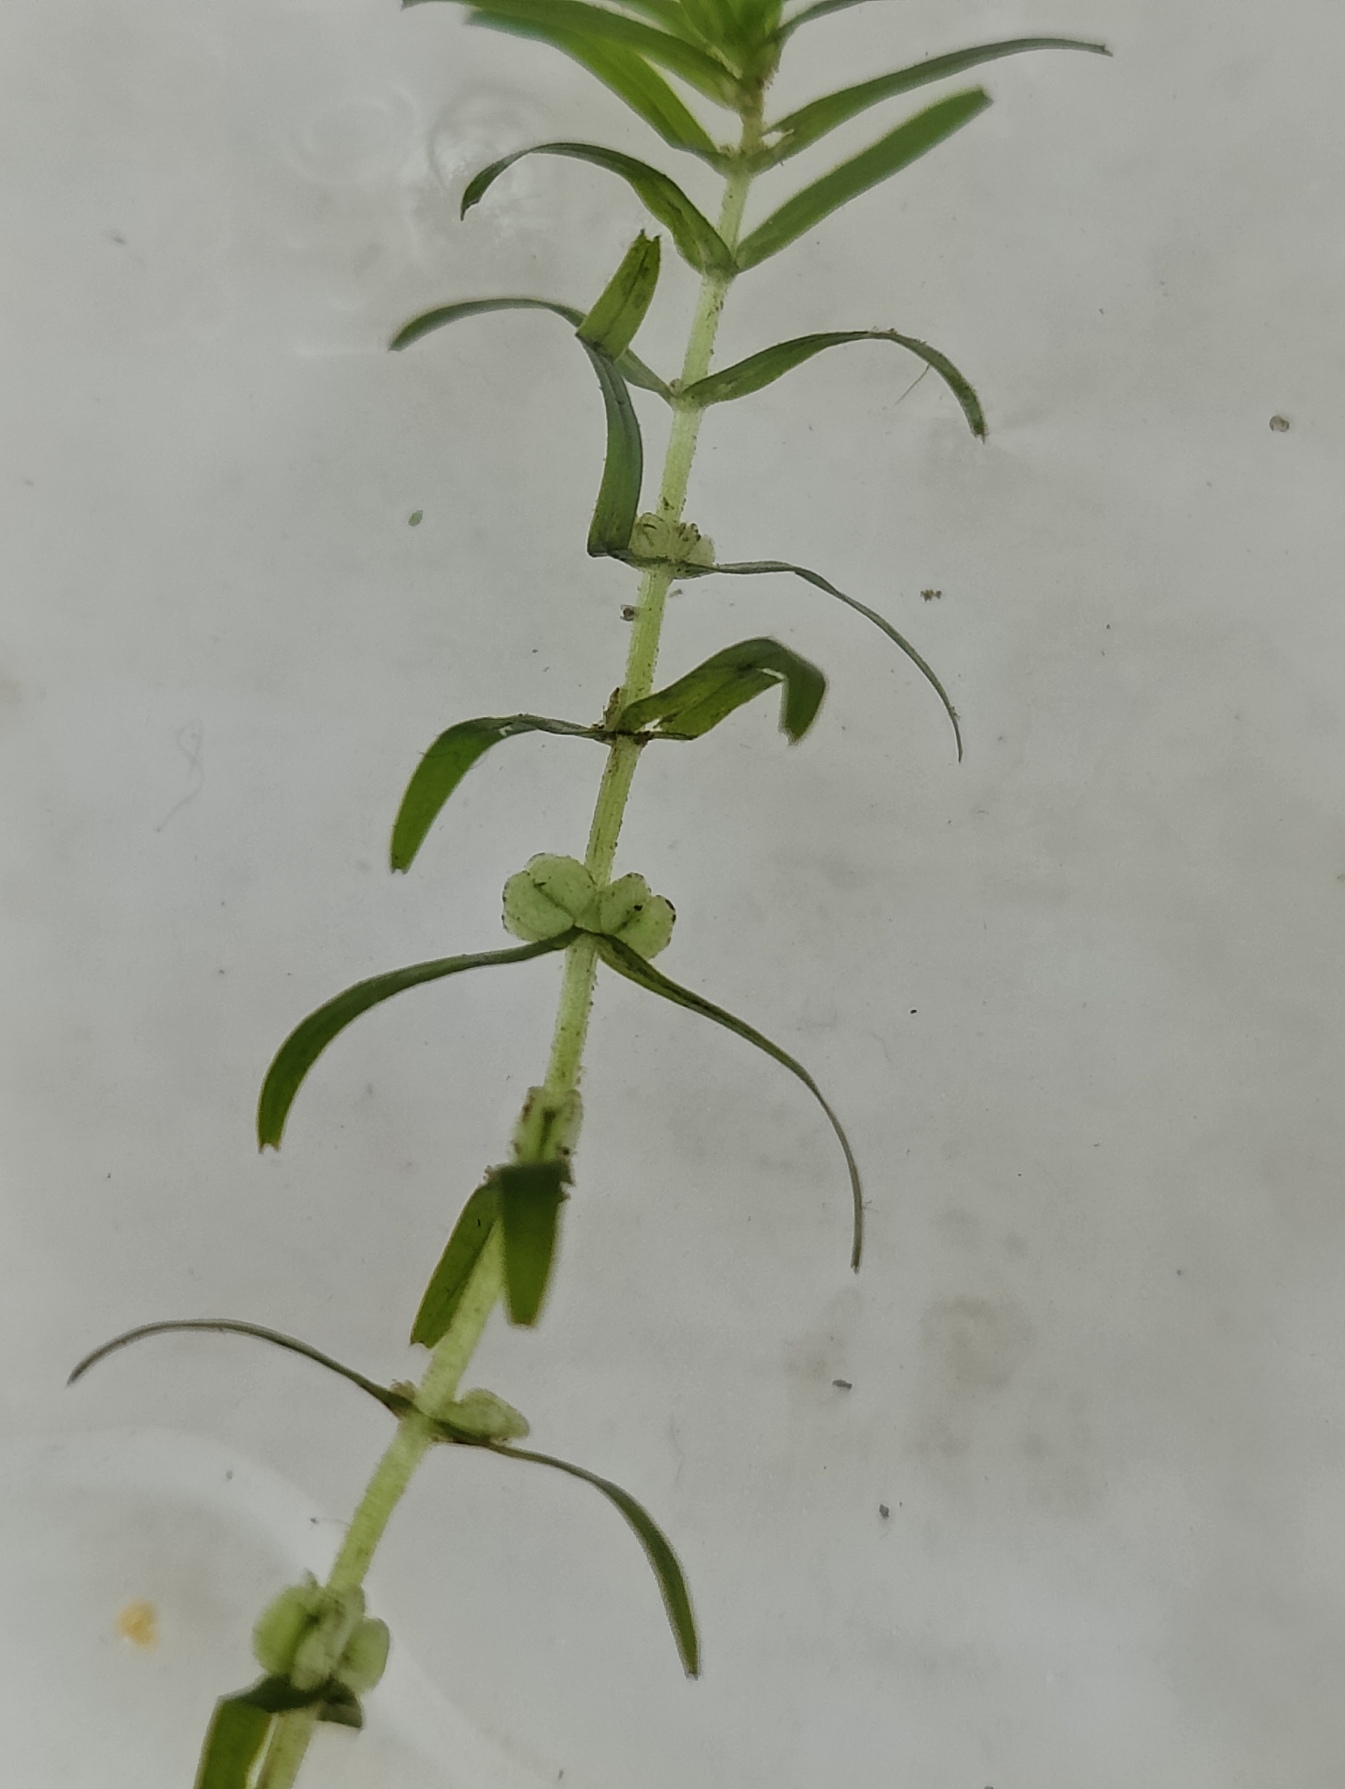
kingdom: Plantae
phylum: Tracheophyta
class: Magnoliopsida
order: Lamiales
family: Plantaginaceae
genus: Callitriche
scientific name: Callitriche hermaphroditica
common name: Høst-vandstjerne
